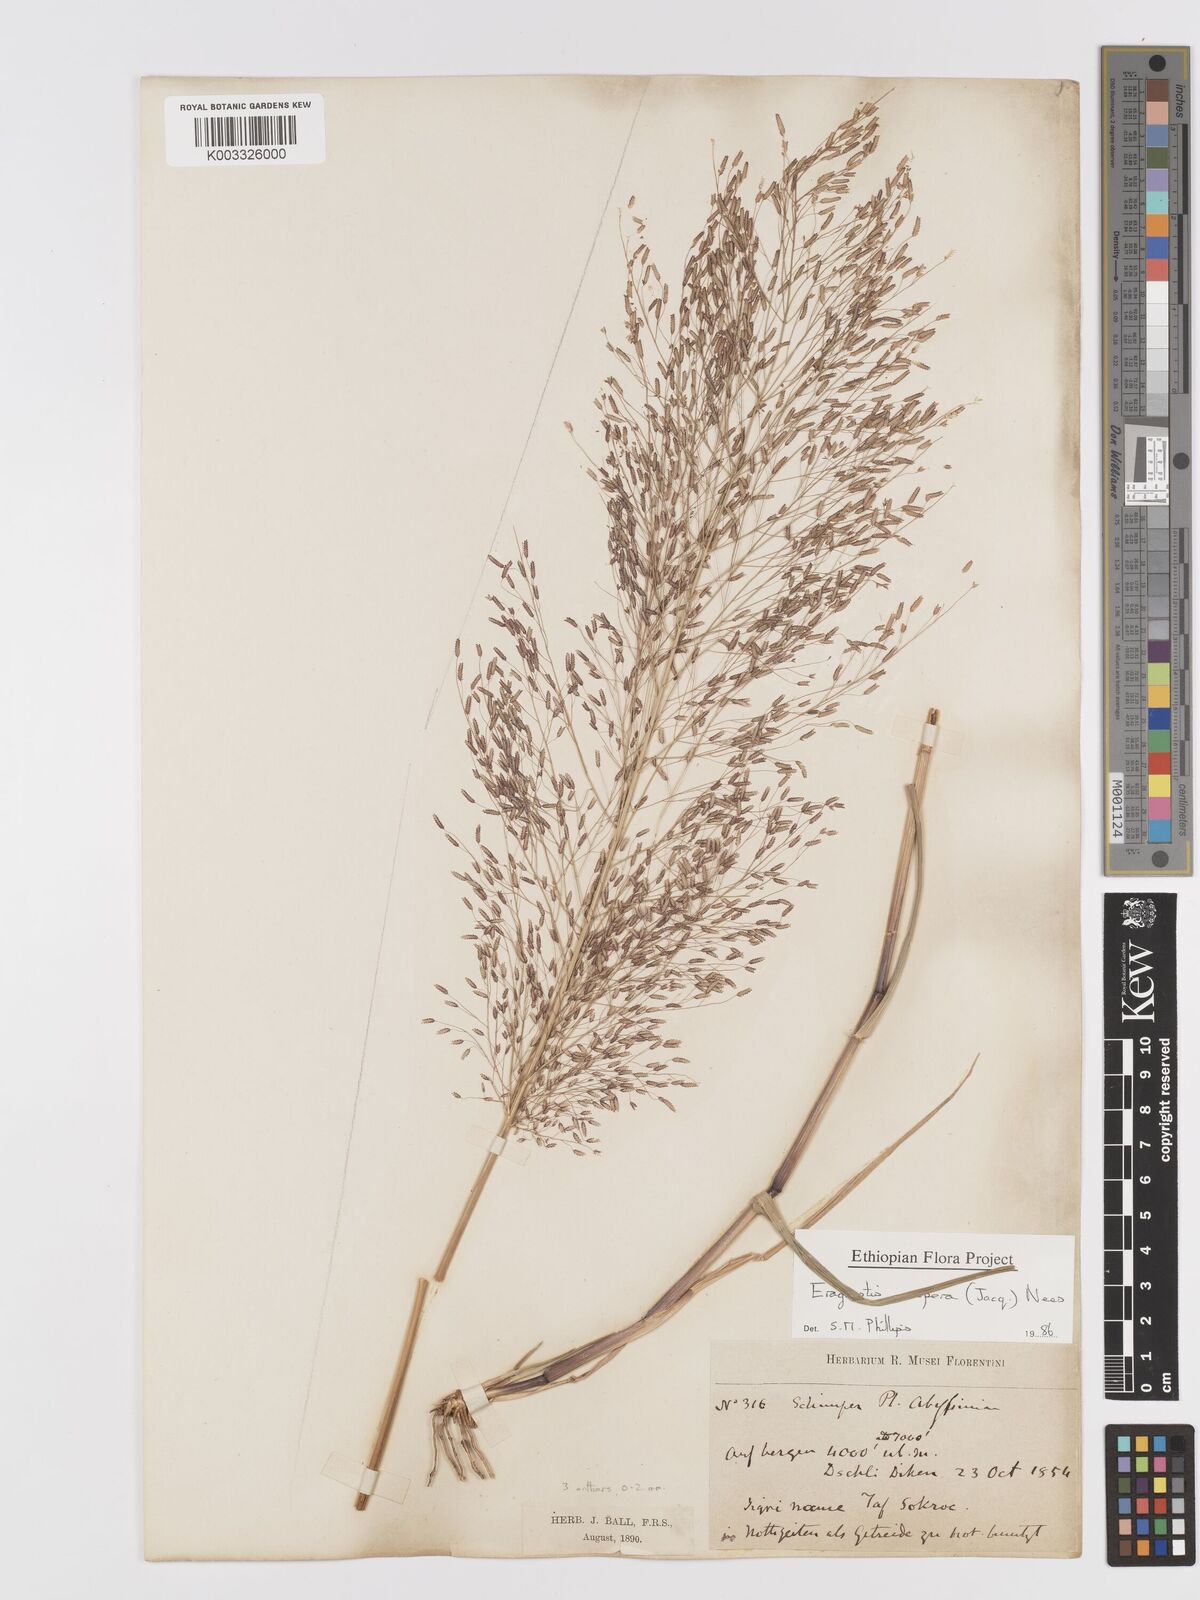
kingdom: Plantae
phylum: Tracheophyta
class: Liliopsida
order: Poales
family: Poaceae
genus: Eragrostis
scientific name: Eragrostis aspera
